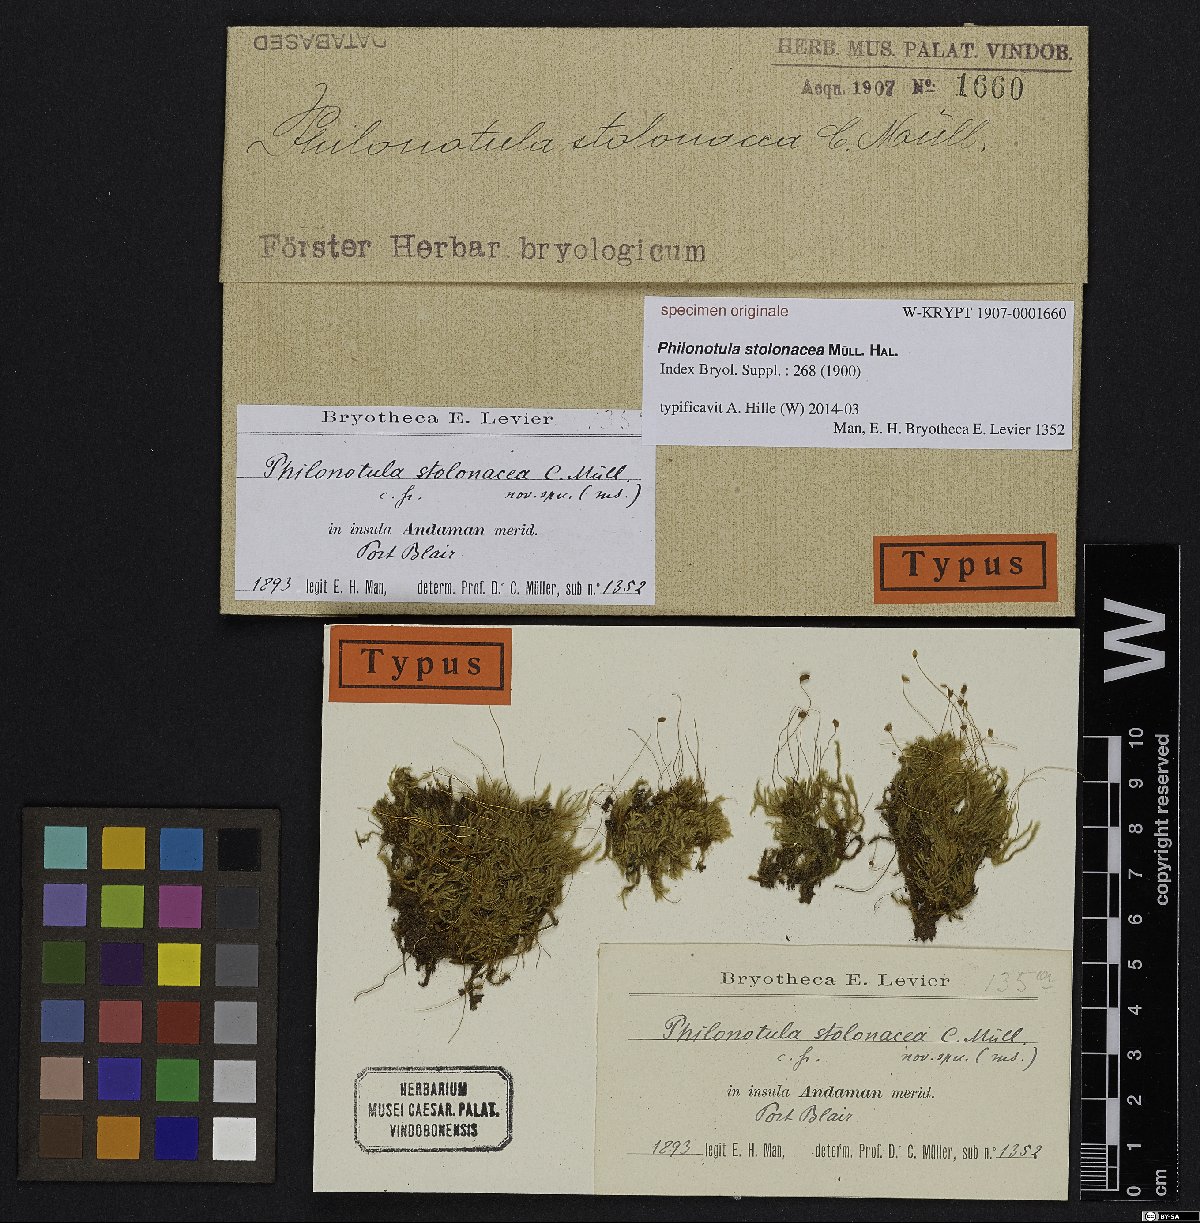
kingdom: Plantae
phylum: Bryophyta
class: Bryopsida
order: Bartramiales
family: Bartramiaceae
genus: Philonotis
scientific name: Philonotis
